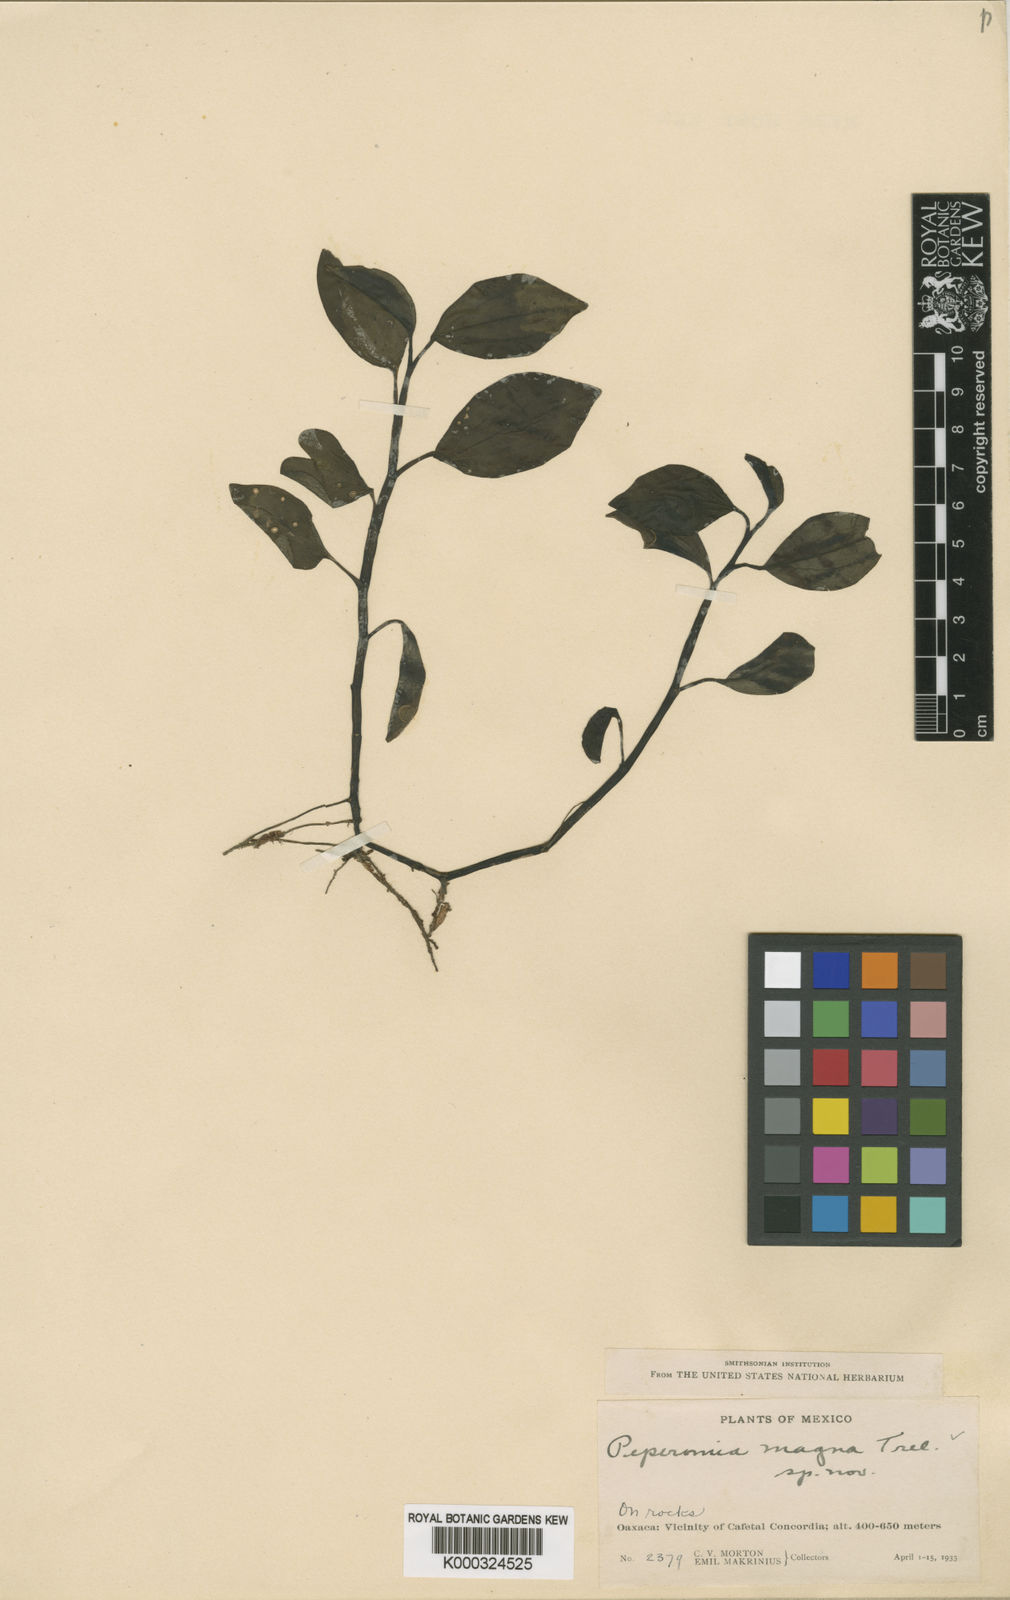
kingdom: Plantae
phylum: Tracheophyta
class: Magnoliopsida
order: Piperales
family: Piperaceae
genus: Peperomia
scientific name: Peperomia
